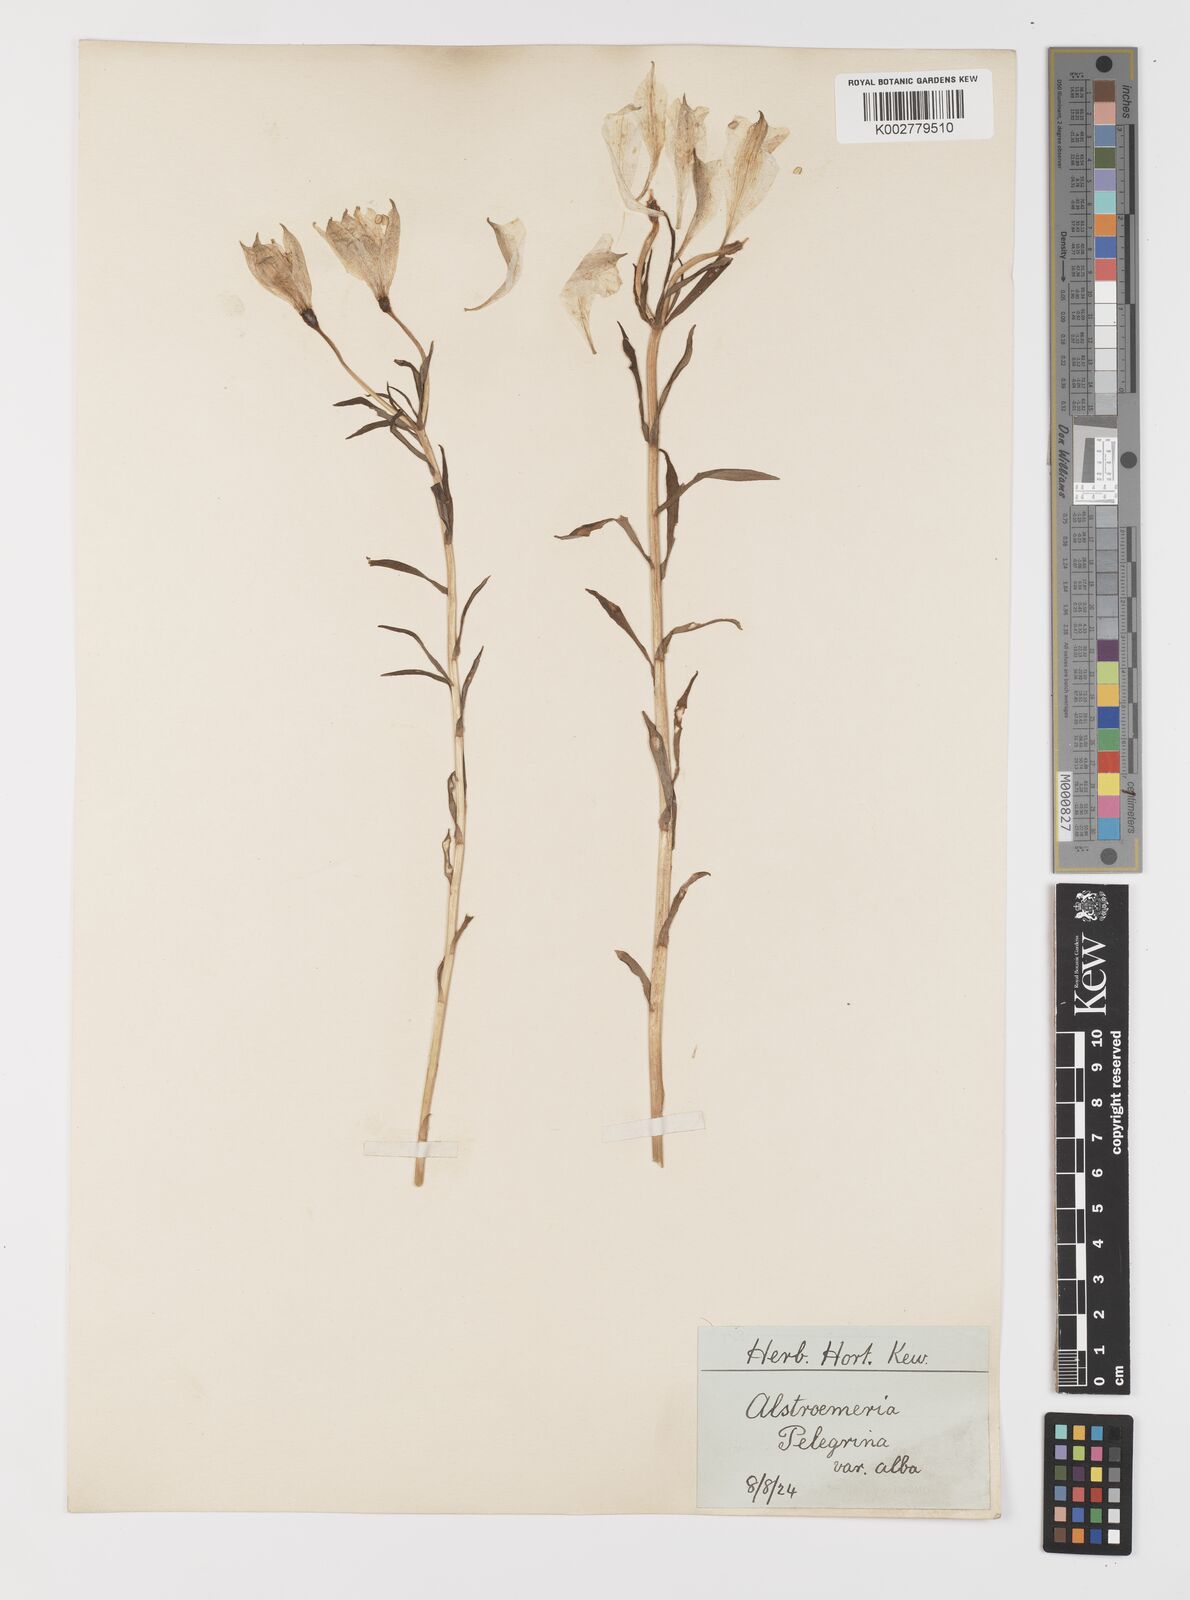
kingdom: Plantae
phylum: Tracheophyta
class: Liliopsida
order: Liliales
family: Alstroemeriaceae
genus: Alstroemeria
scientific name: Alstroemeria pelegrina
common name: Peruvian-lily
